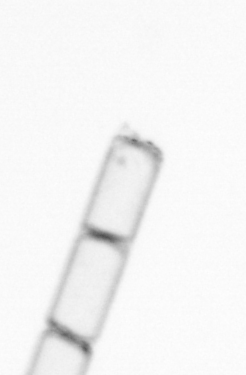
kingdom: Chromista
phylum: Ochrophyta
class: Bacillariophyceae
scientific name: Bacillariophyceae
